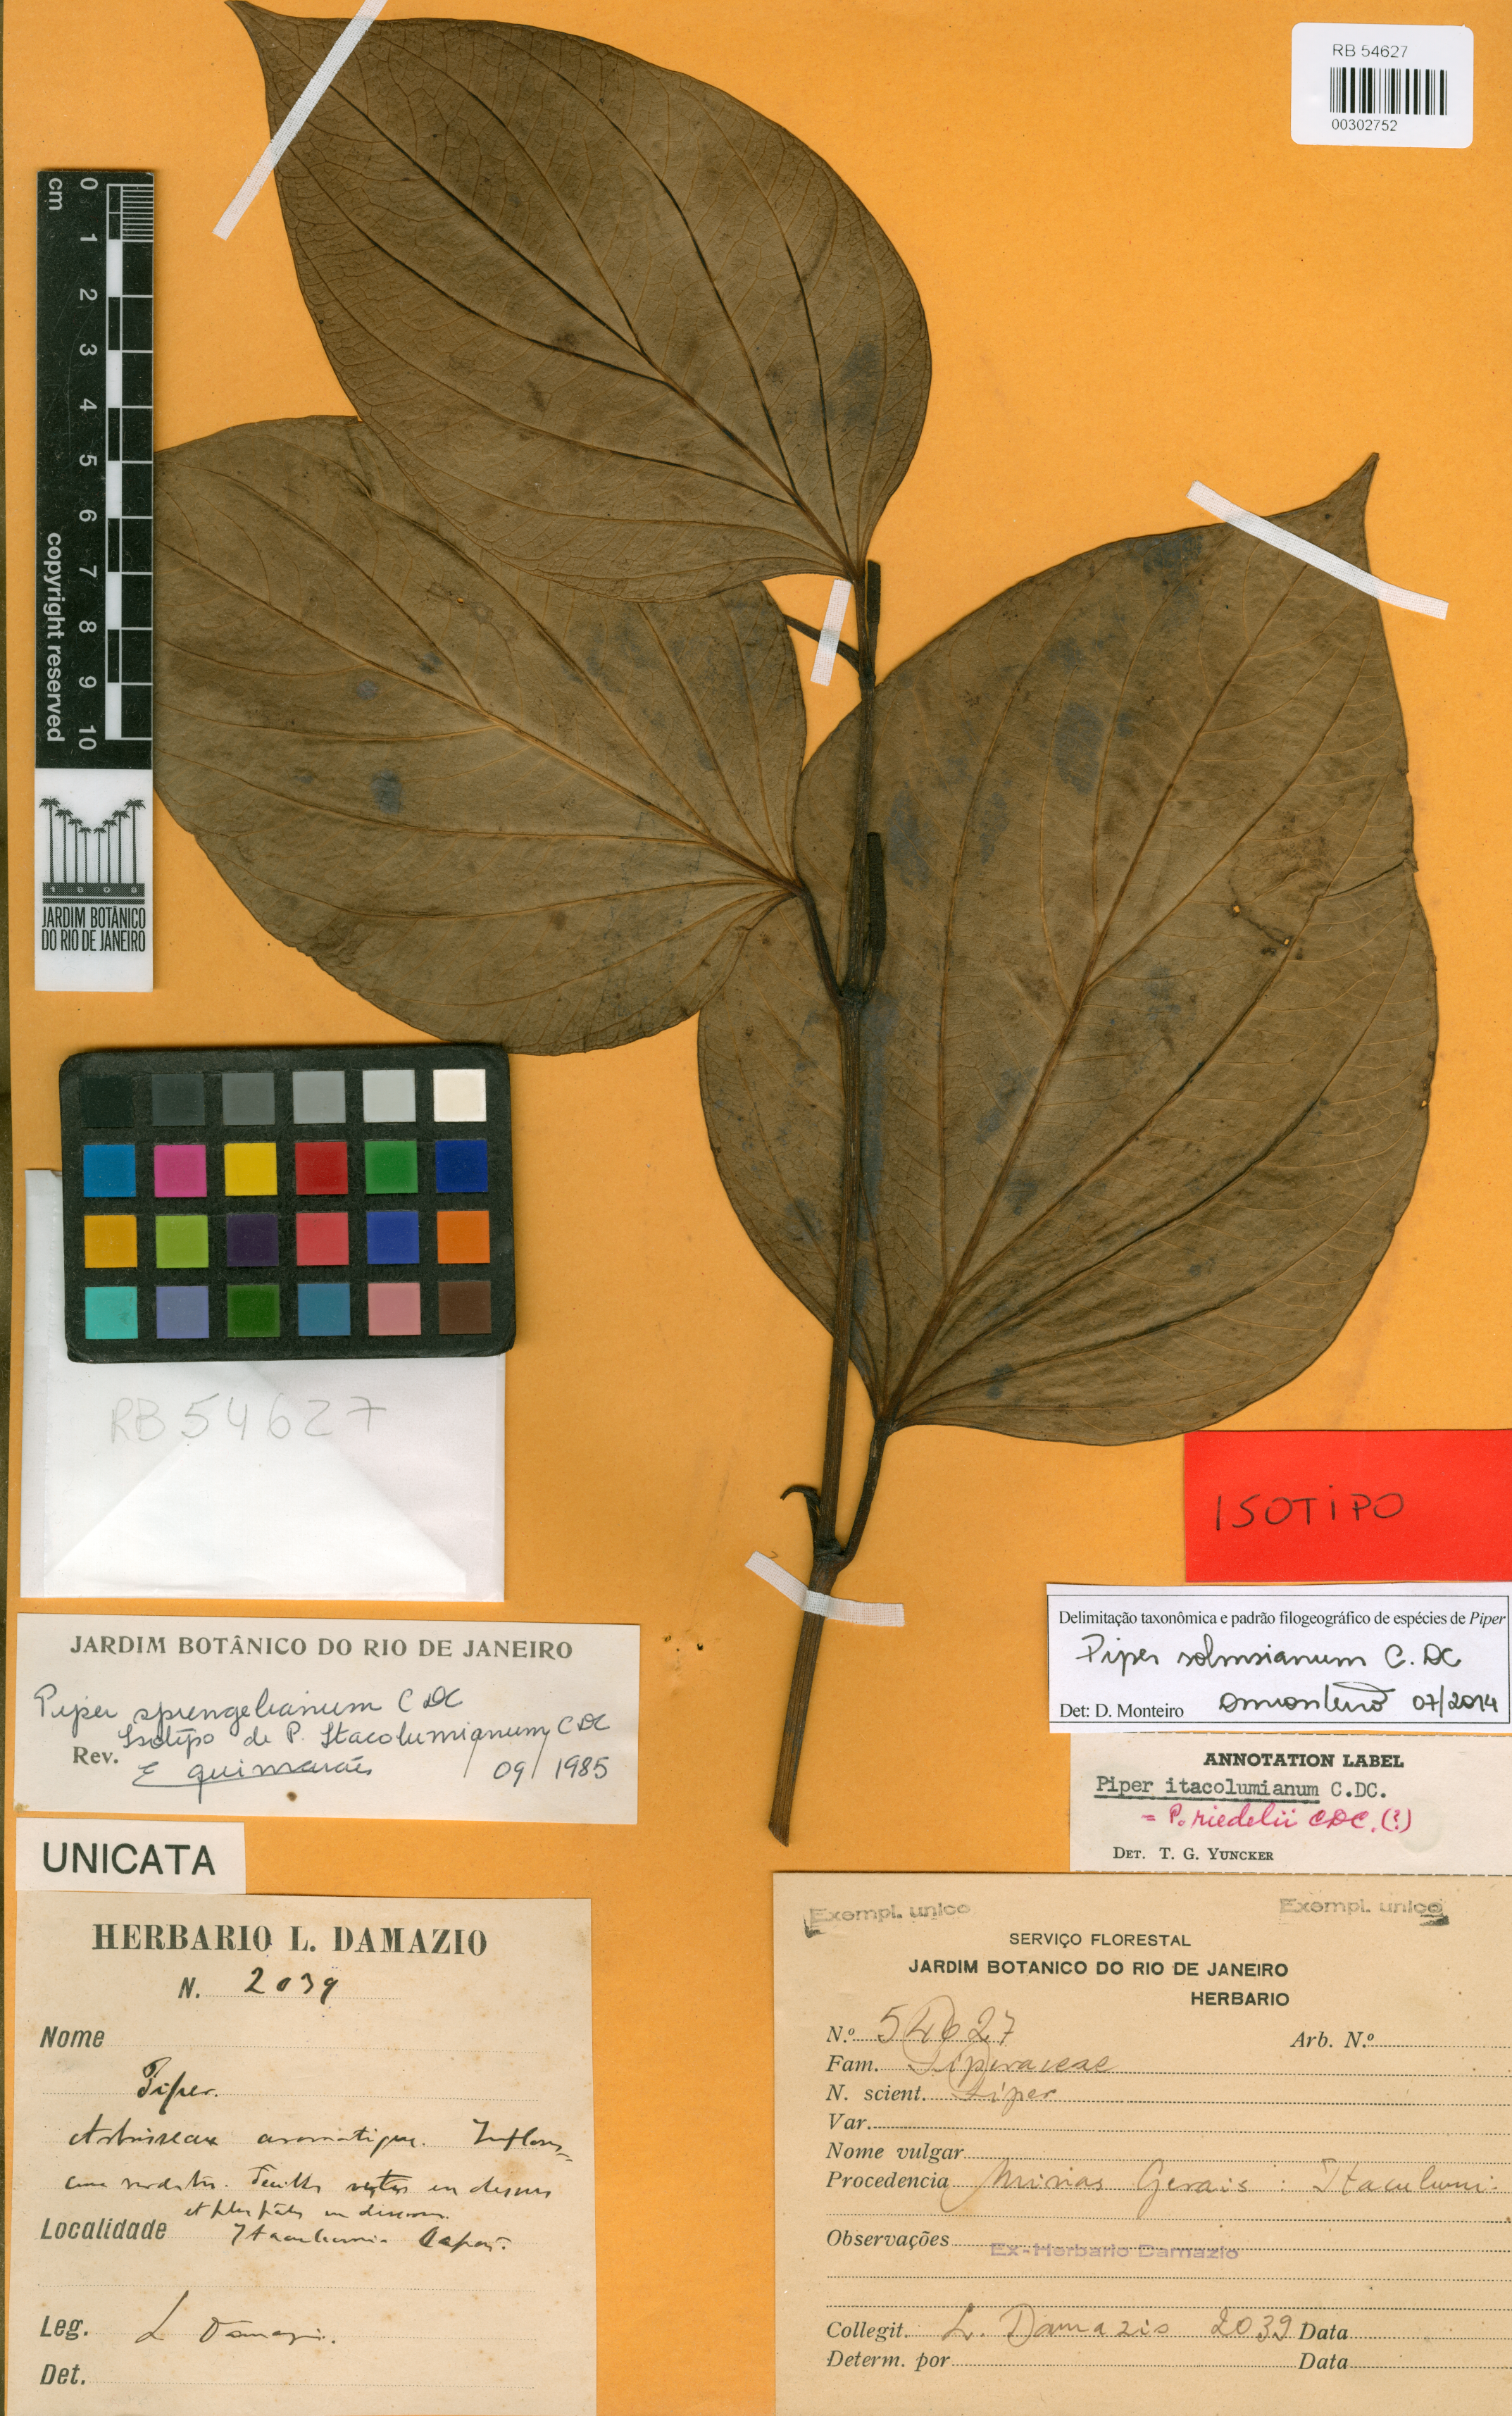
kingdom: Plantae
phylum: Tracheophyta
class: Magnoliopsida
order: Piperales
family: Piperaceae
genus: Piper
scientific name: Piper sprengelianum
